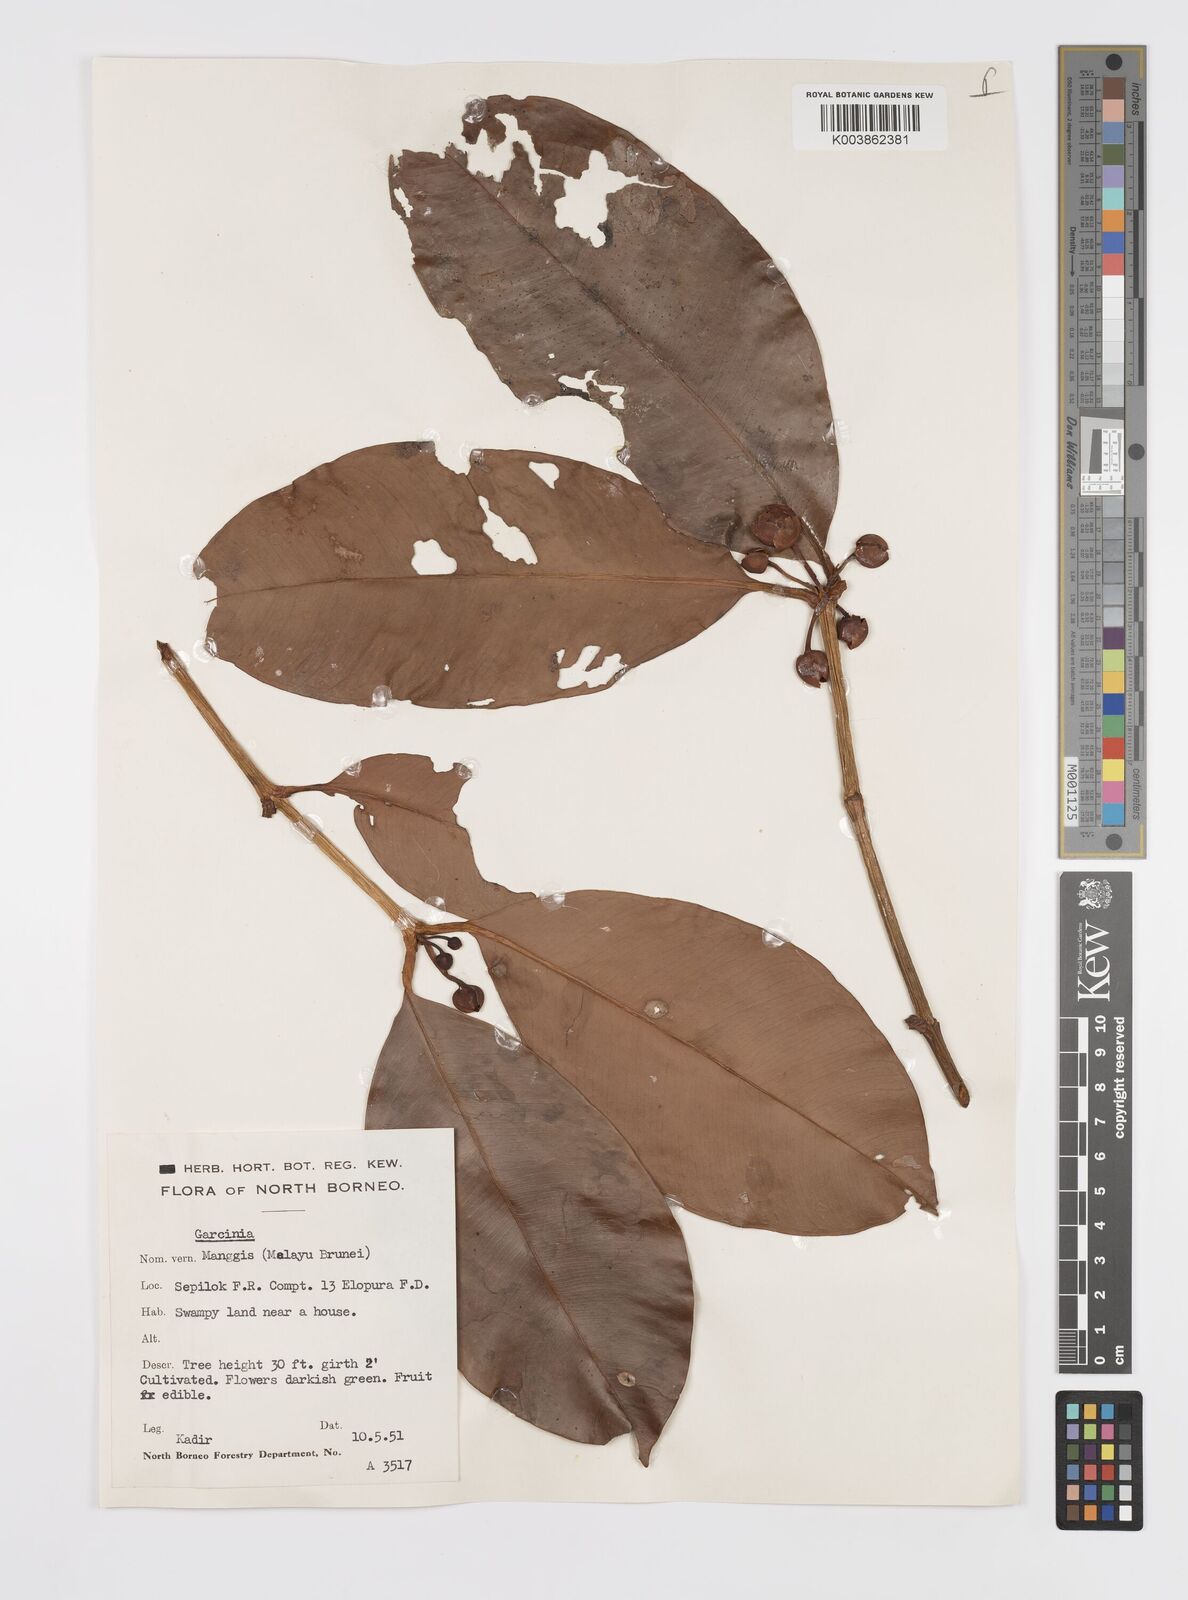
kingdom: Plantae
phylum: Tracheophyta
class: Magnoliopsida
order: Malpighiales
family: Clusiaceae
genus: Garcinia
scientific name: Garcinia
